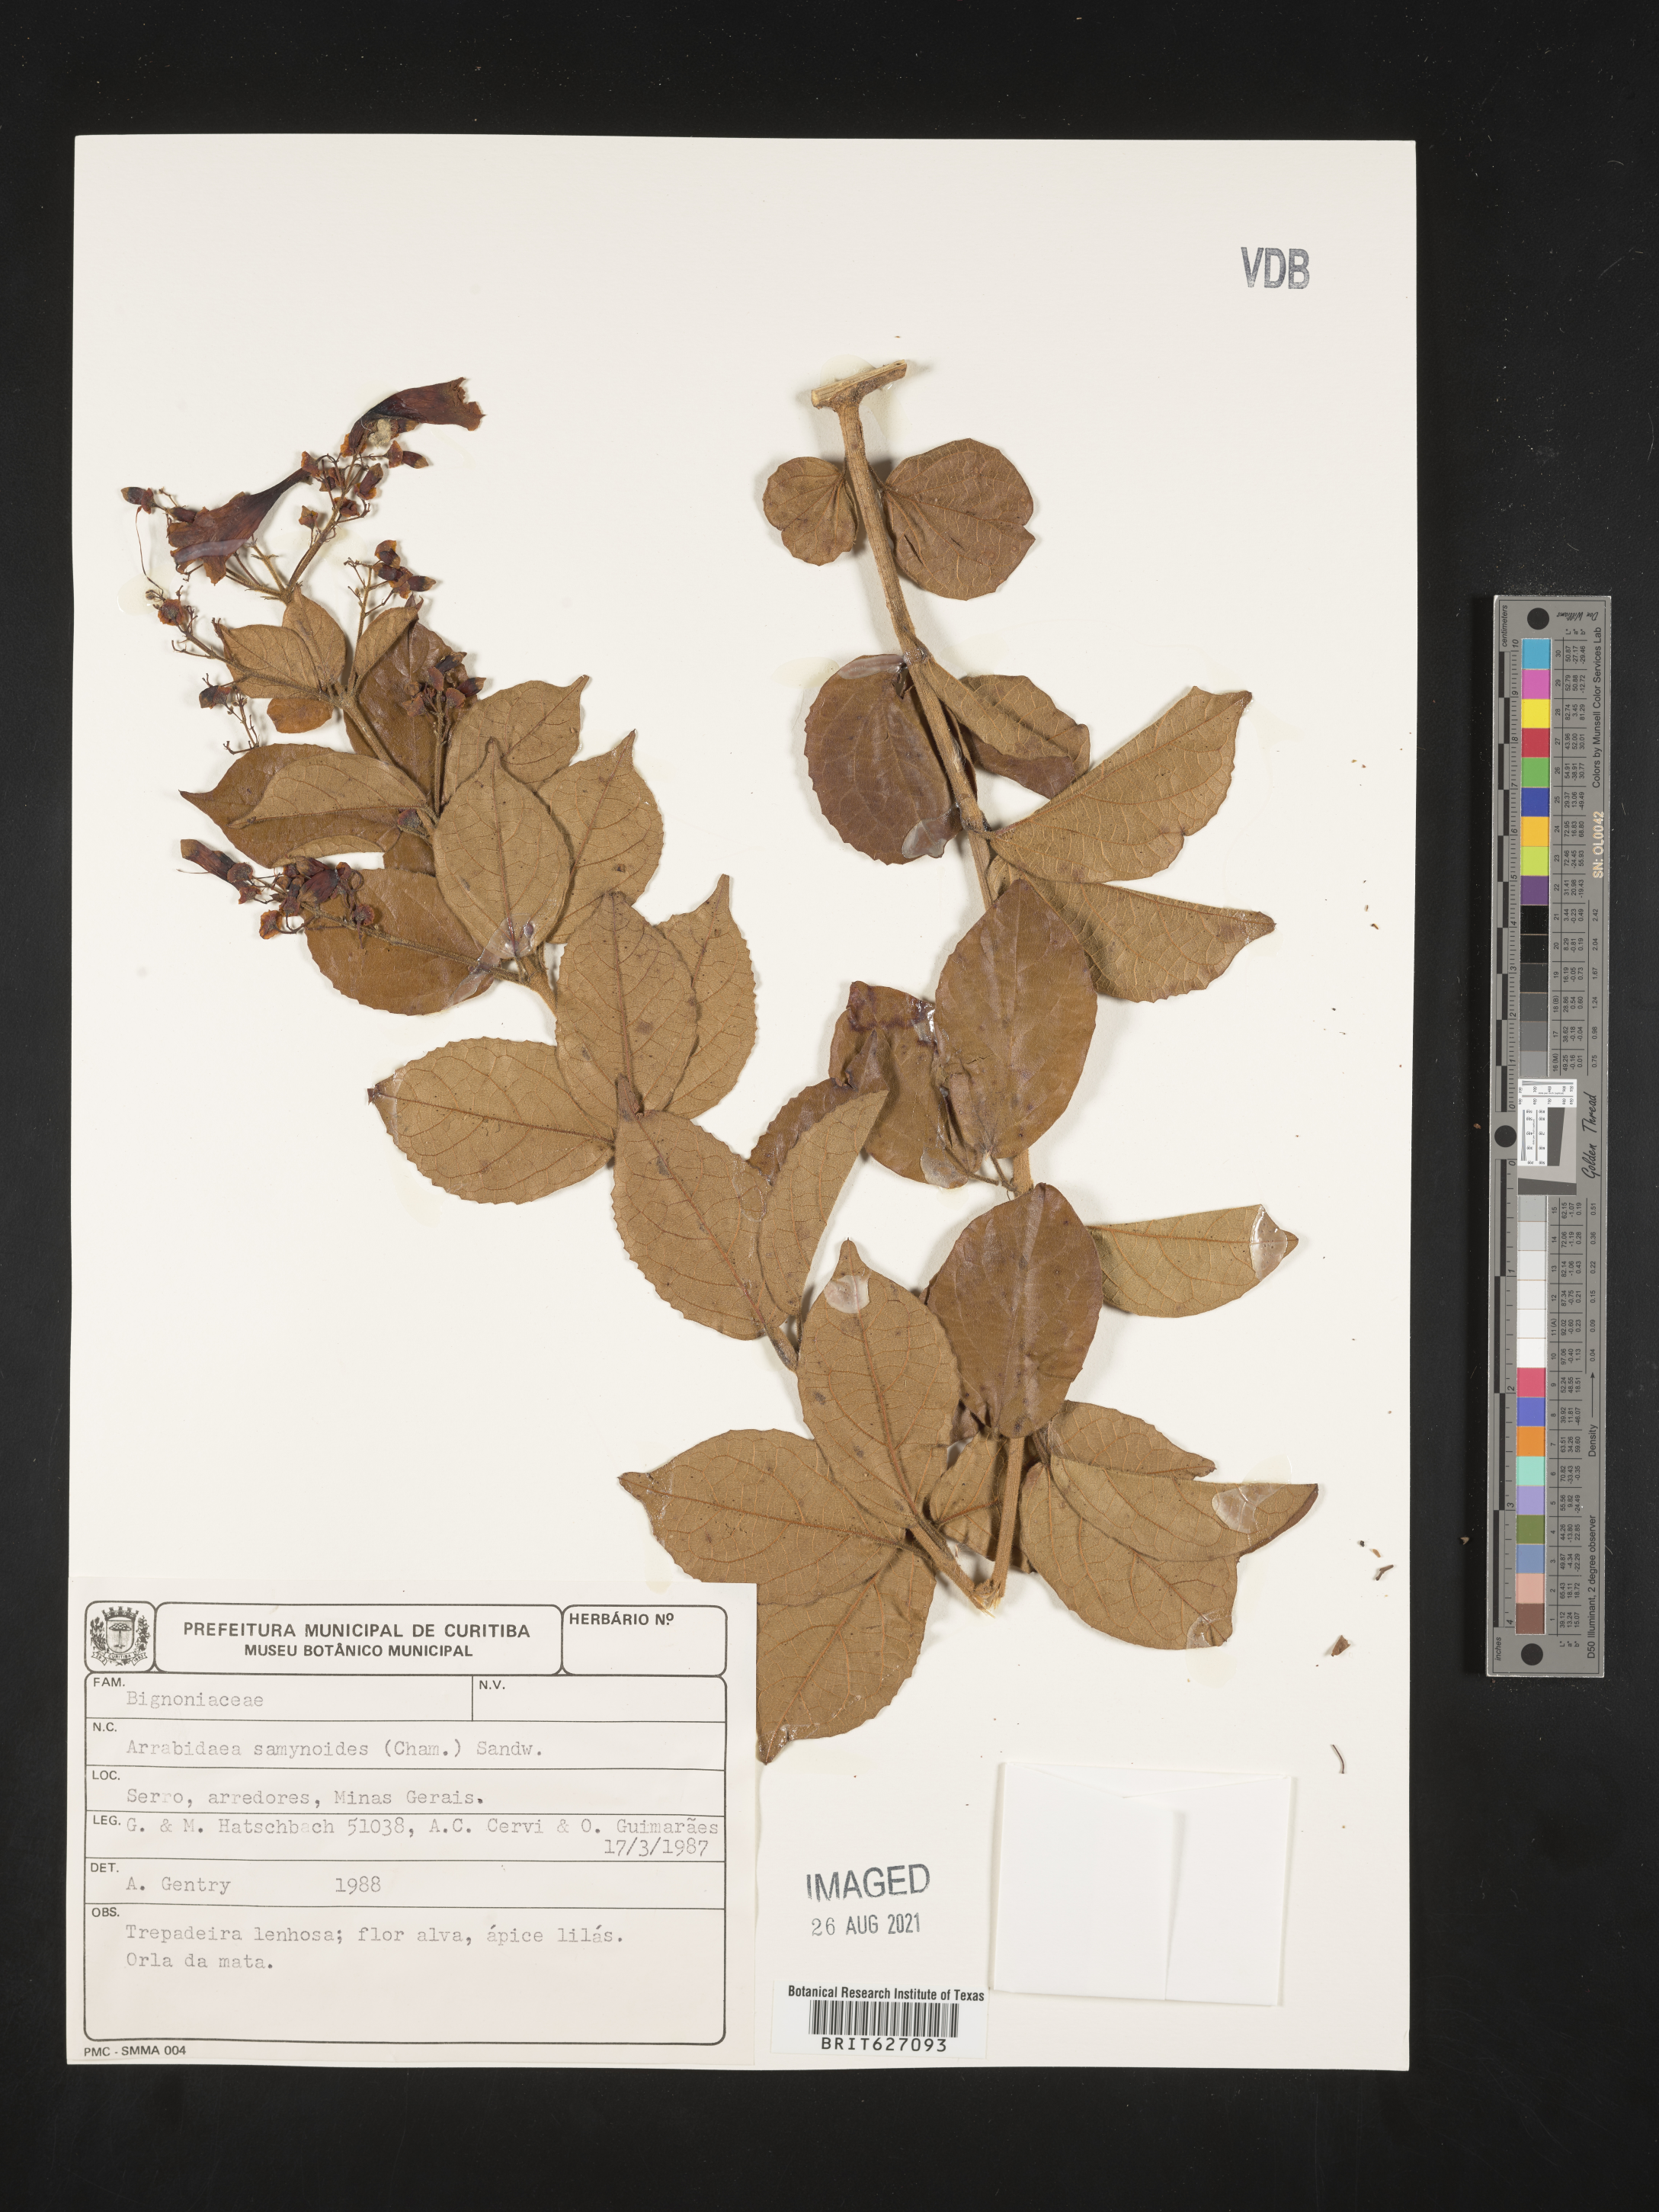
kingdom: Plantae
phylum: Tracheophyta
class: Magnoliopsida
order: Lamiales
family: Bignoniaceae
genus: Fridericia
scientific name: Fridericia samydoides
